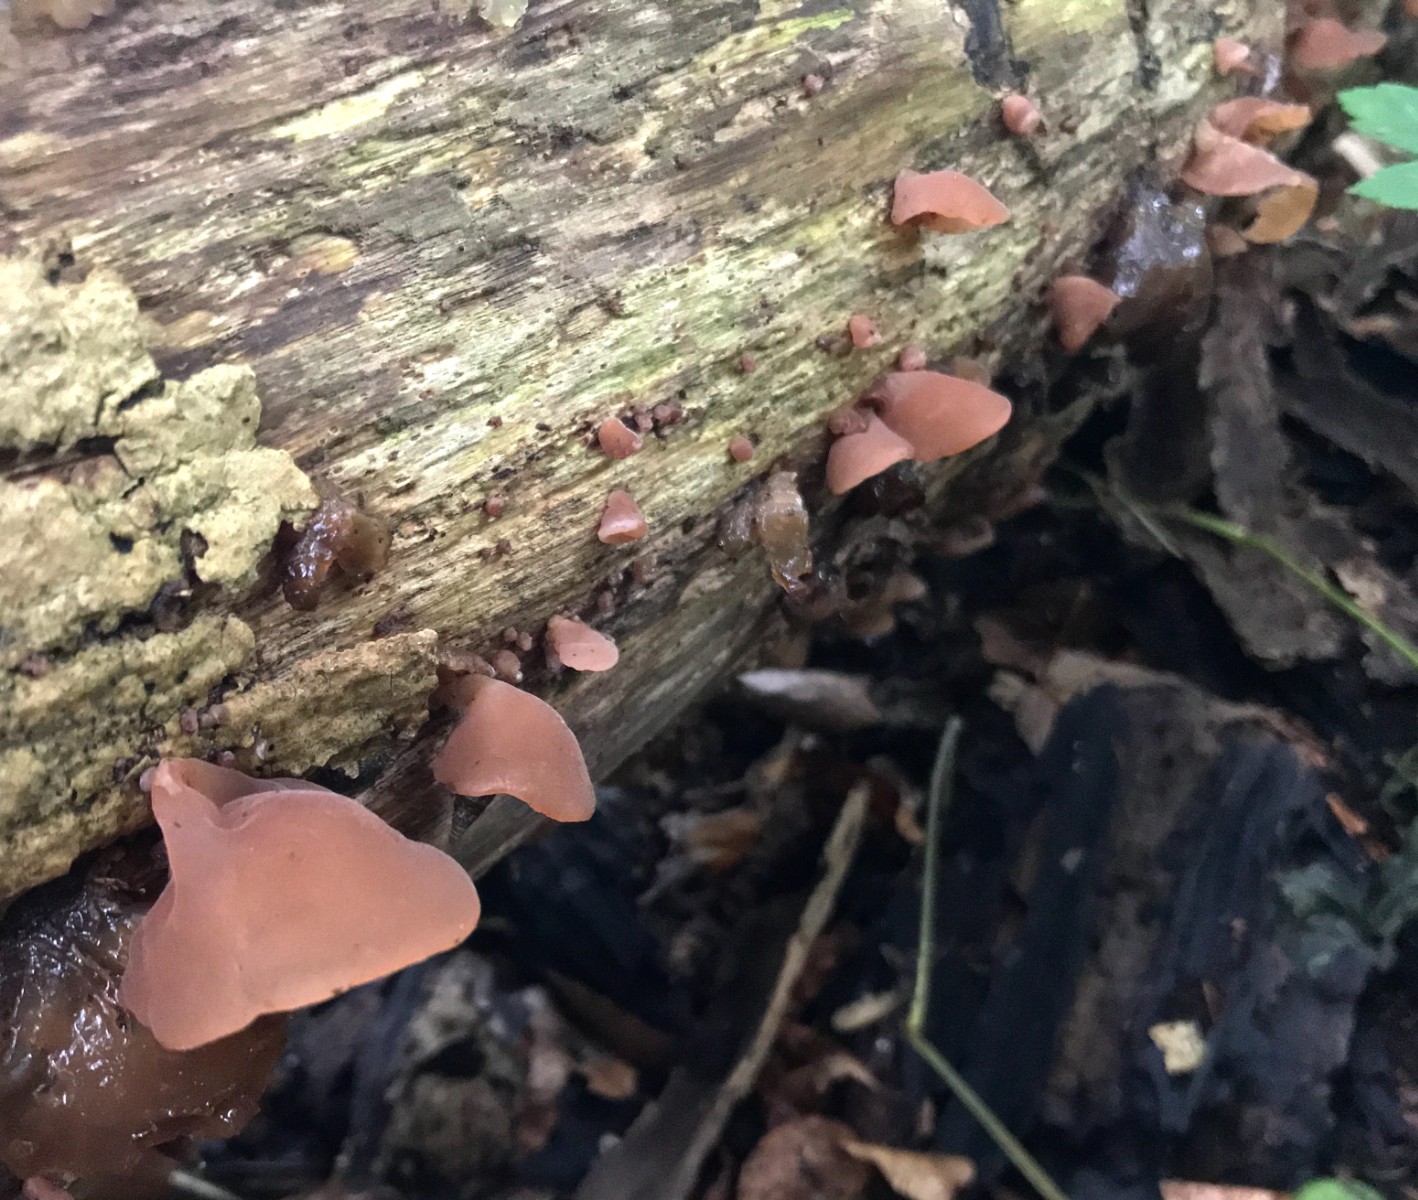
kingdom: Fungi
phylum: Basidiomycota
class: Agaricomycetes
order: Auriculariales
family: Auriculariaceae
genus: Auricularia
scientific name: Auricularia auricula-judae
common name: almindelig judasøre
